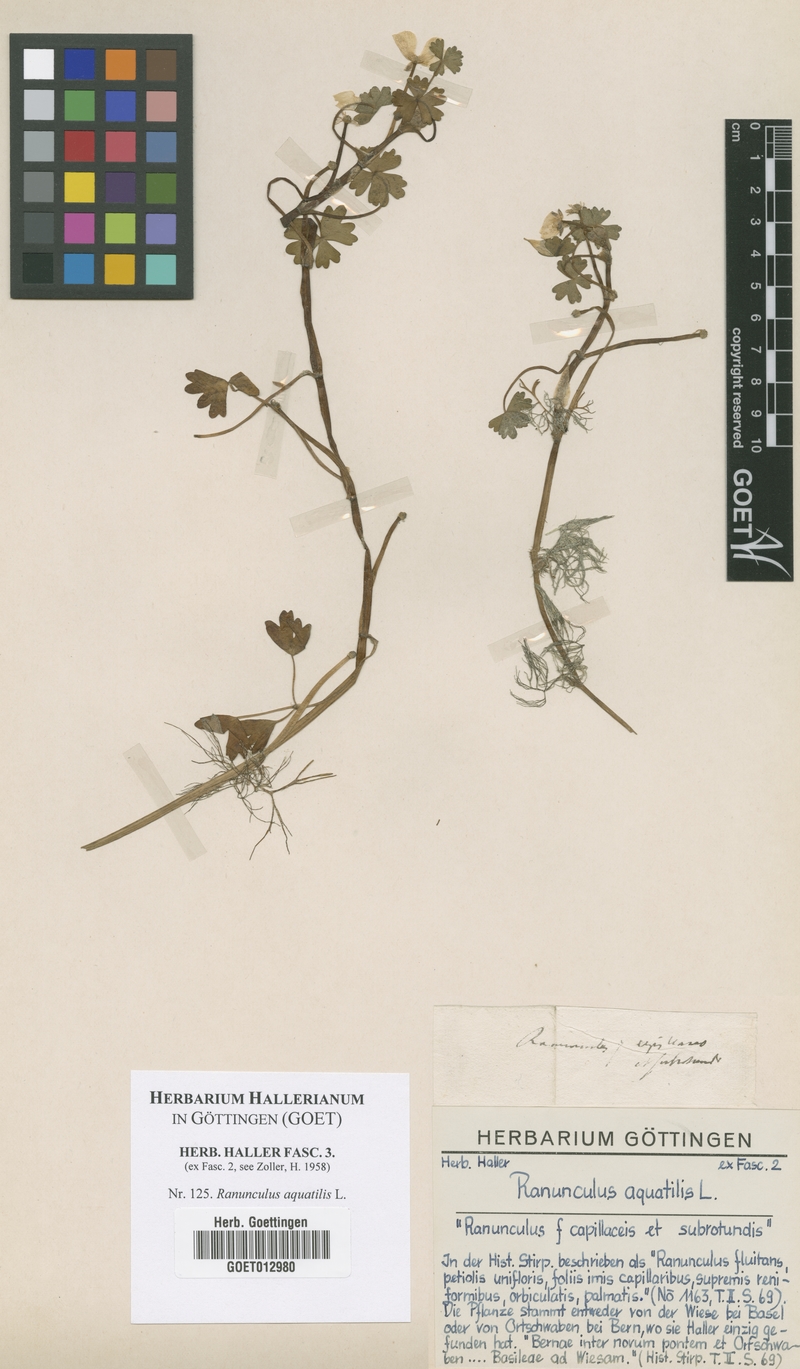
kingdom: Plantae
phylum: Tracheophyta
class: Magnoliopsida
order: Ranunculales
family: Ranunculaceae
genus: Ranunculus
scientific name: Ranunculus aquatilis
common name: Common water-crowfoot
